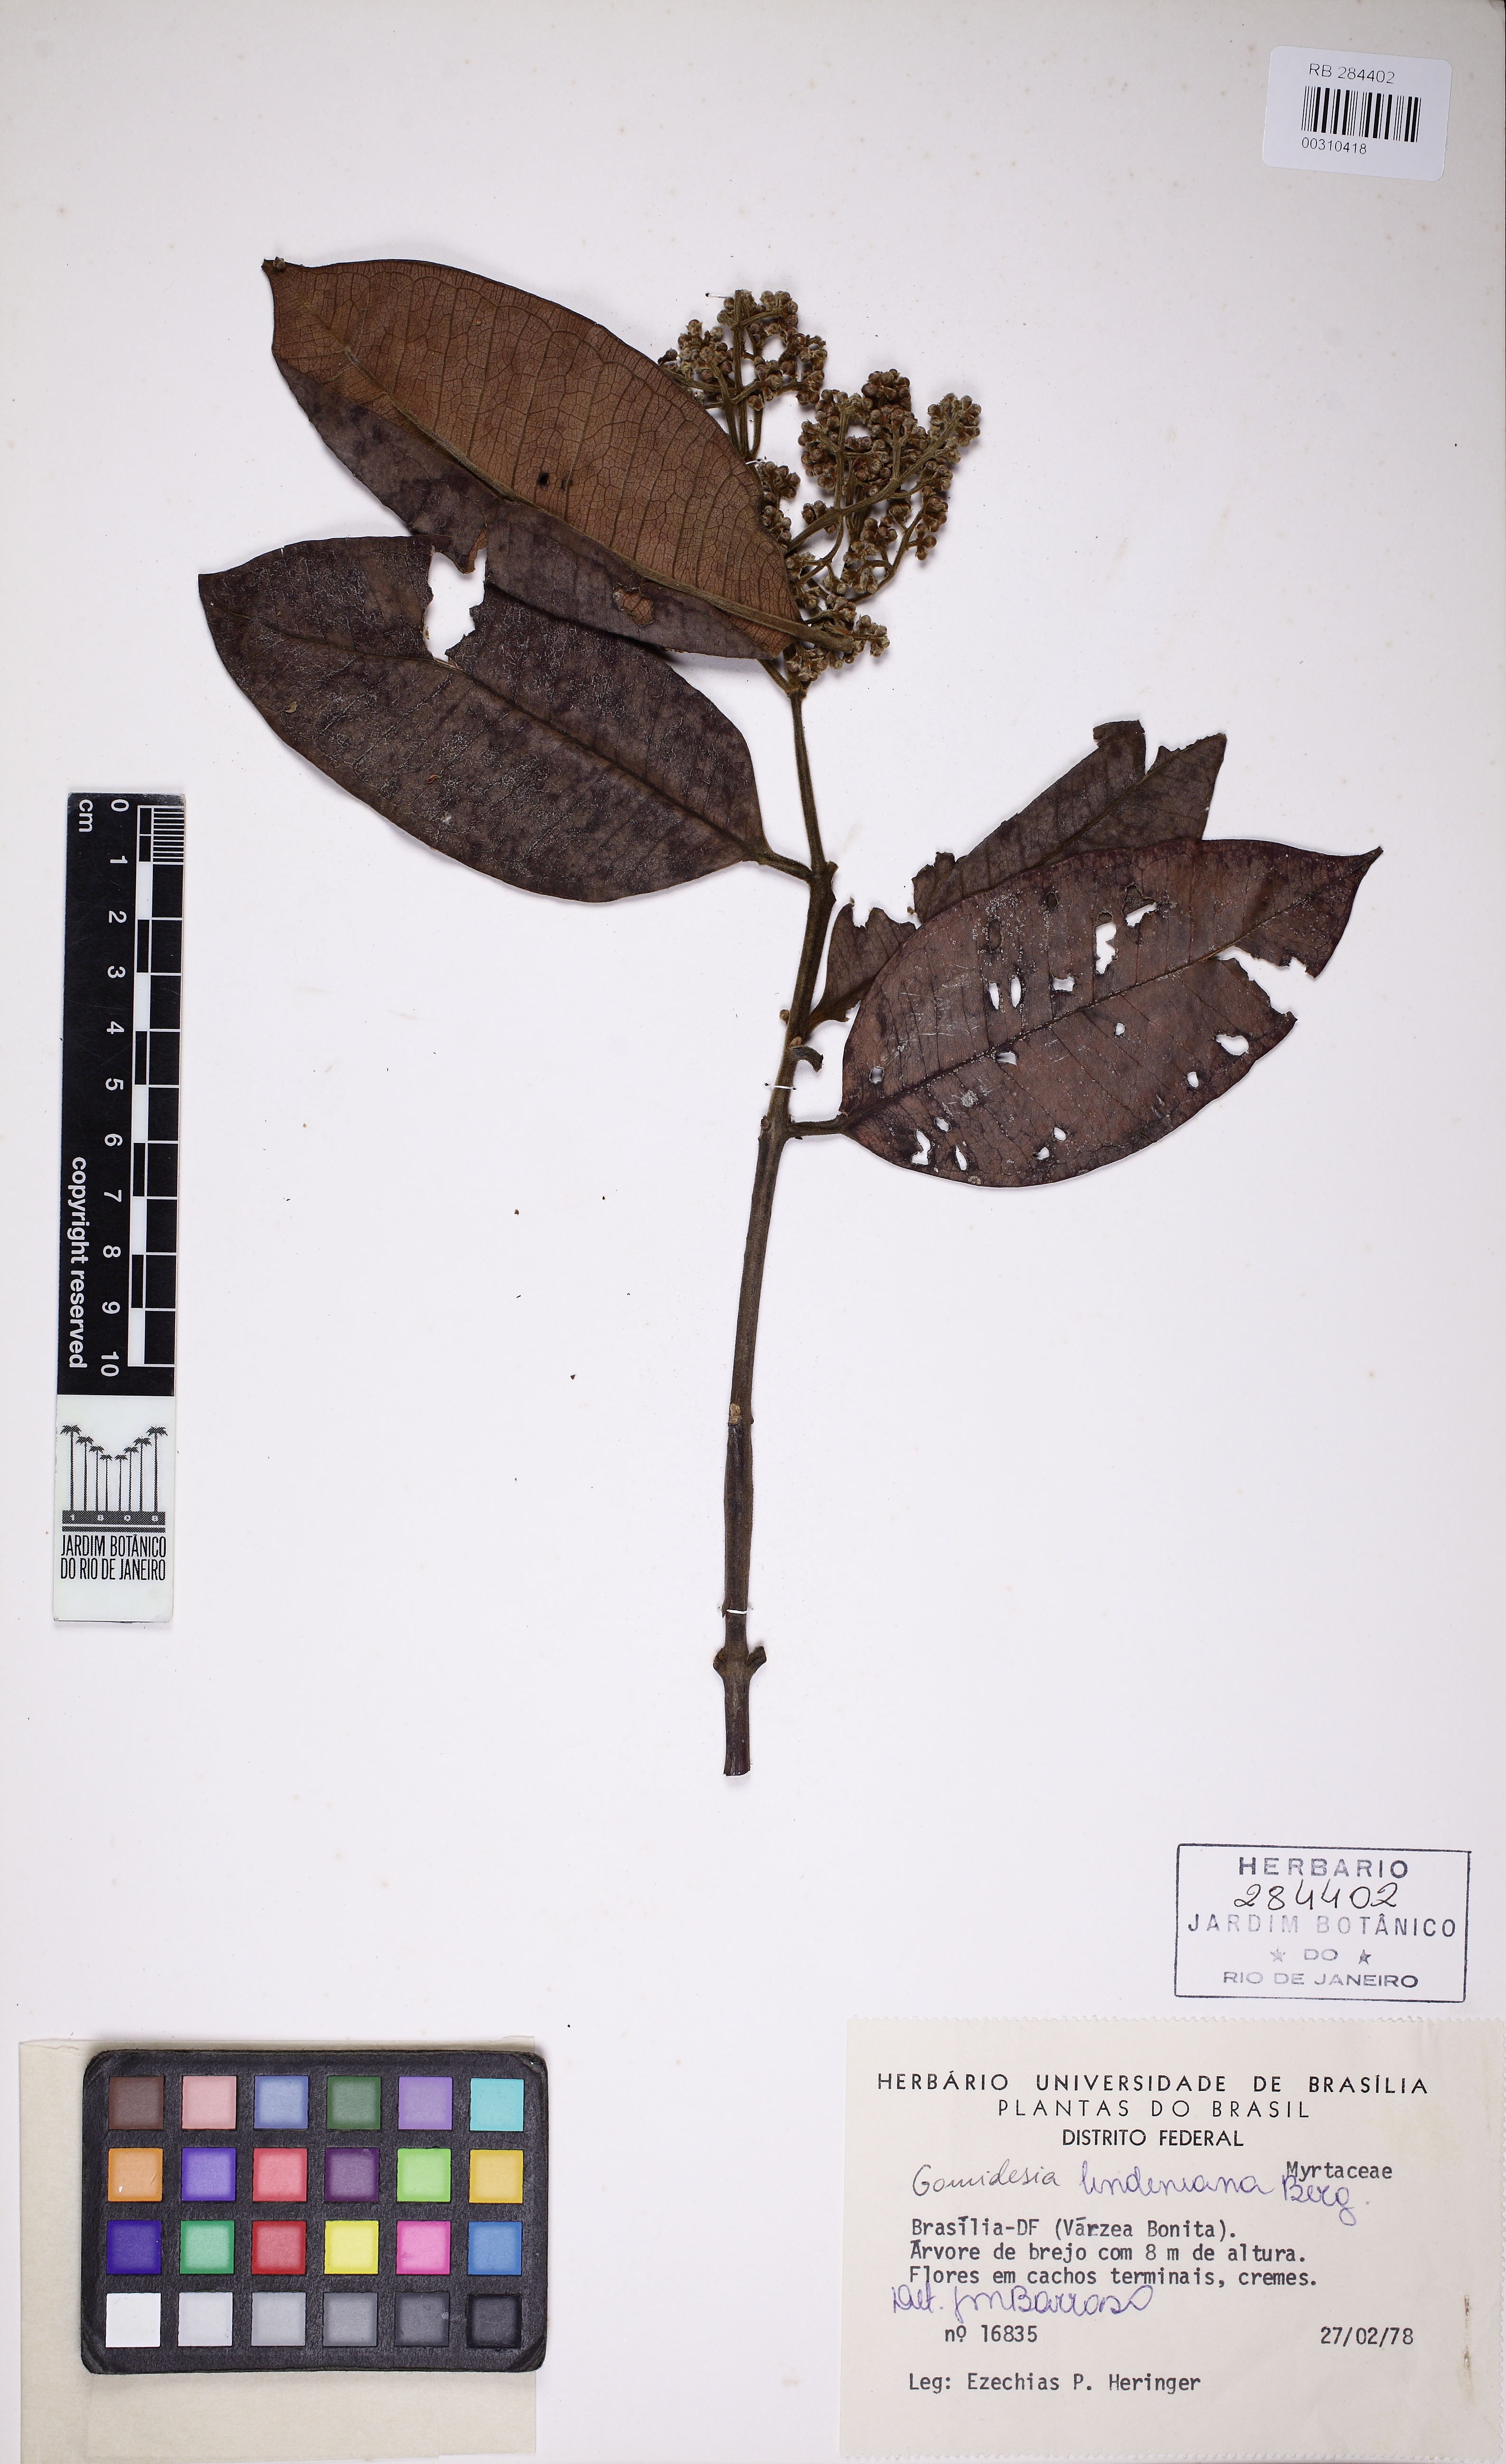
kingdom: Plantae
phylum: Tracheophyta
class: Magnoliopsida
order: Myrtales
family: Myrtaceae
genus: Myrcia
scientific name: Myrcia fenzliana
